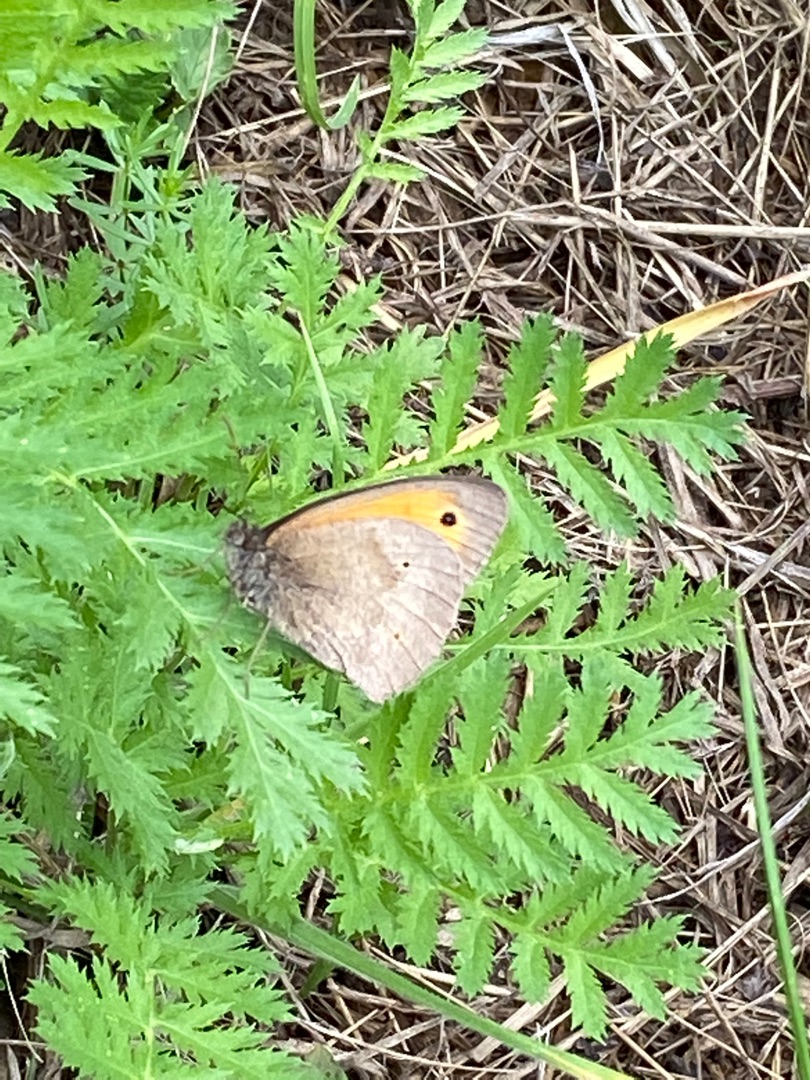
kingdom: Animalia
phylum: Arthropoda
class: Insecta
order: Lepidoptera
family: Nymphalidae
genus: Maniola
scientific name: Maniola jurtina
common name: Græsrandøje
